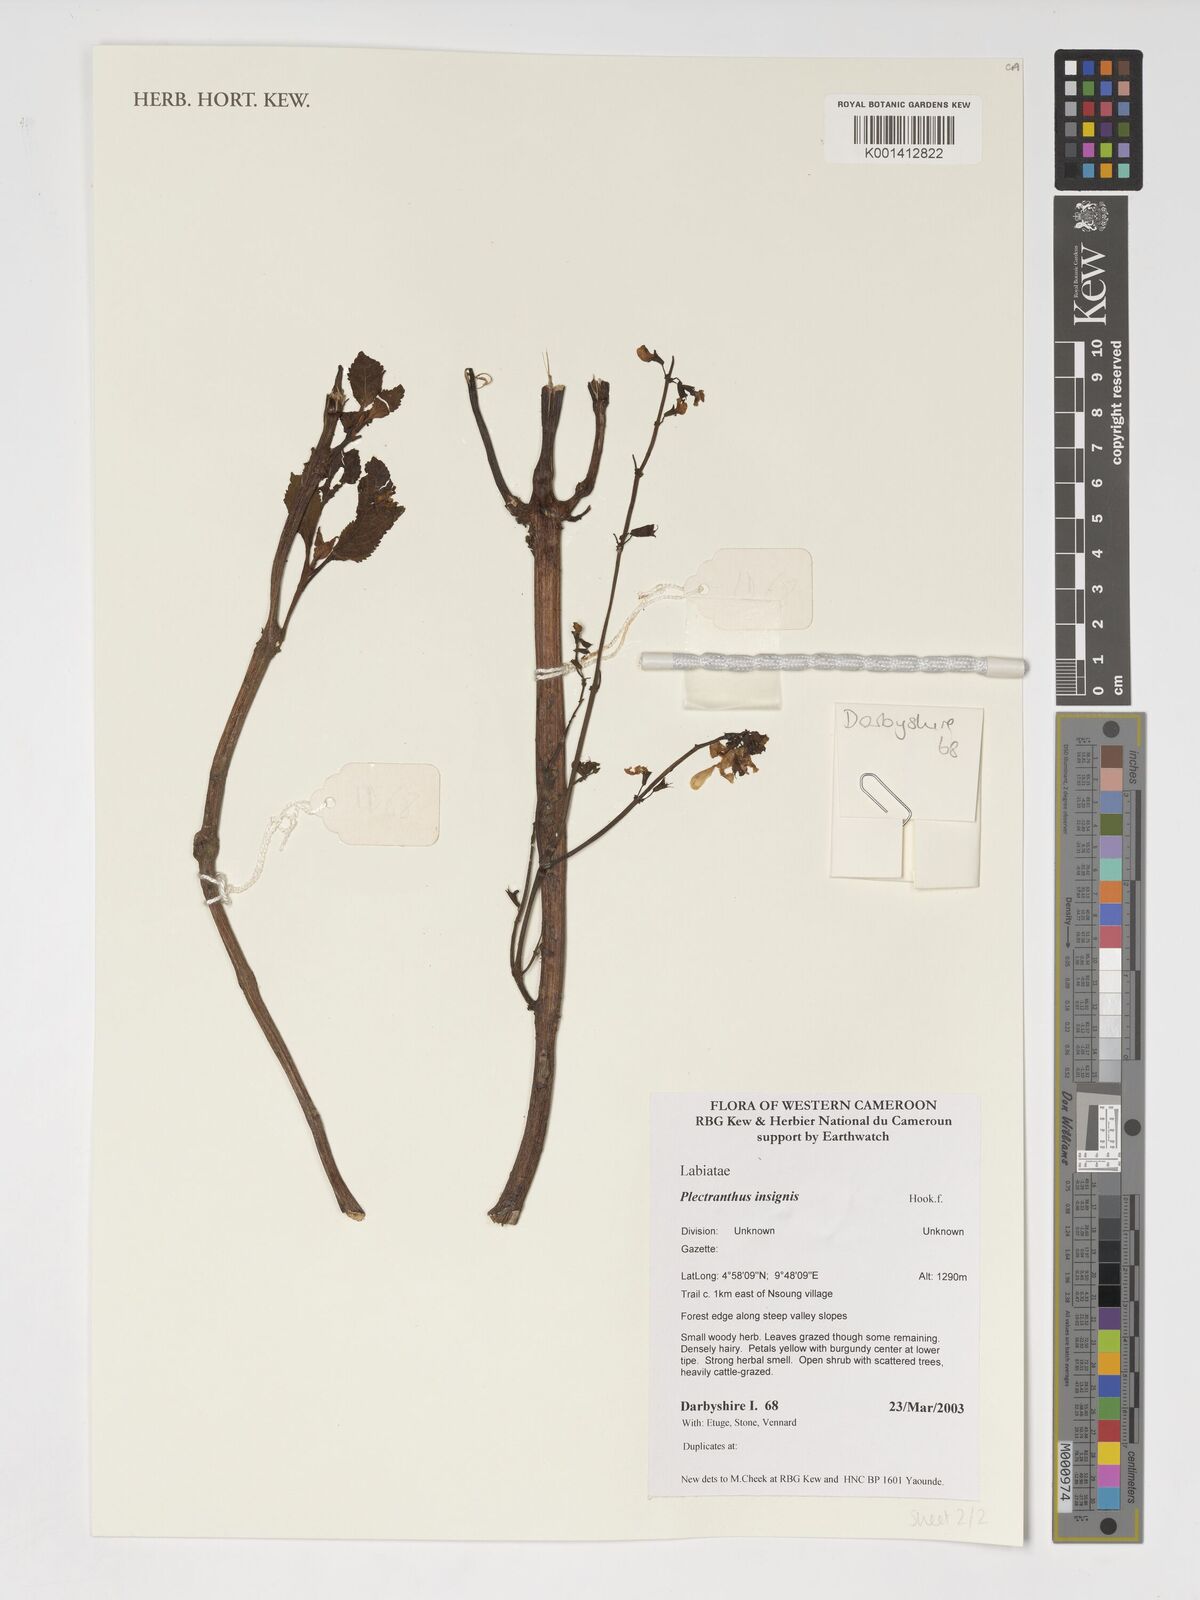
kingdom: Plantae
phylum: Tracheophyta
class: Magnoliopsida
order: Lamiales
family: Lamiaceae
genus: Coleus
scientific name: Coleus insignis
